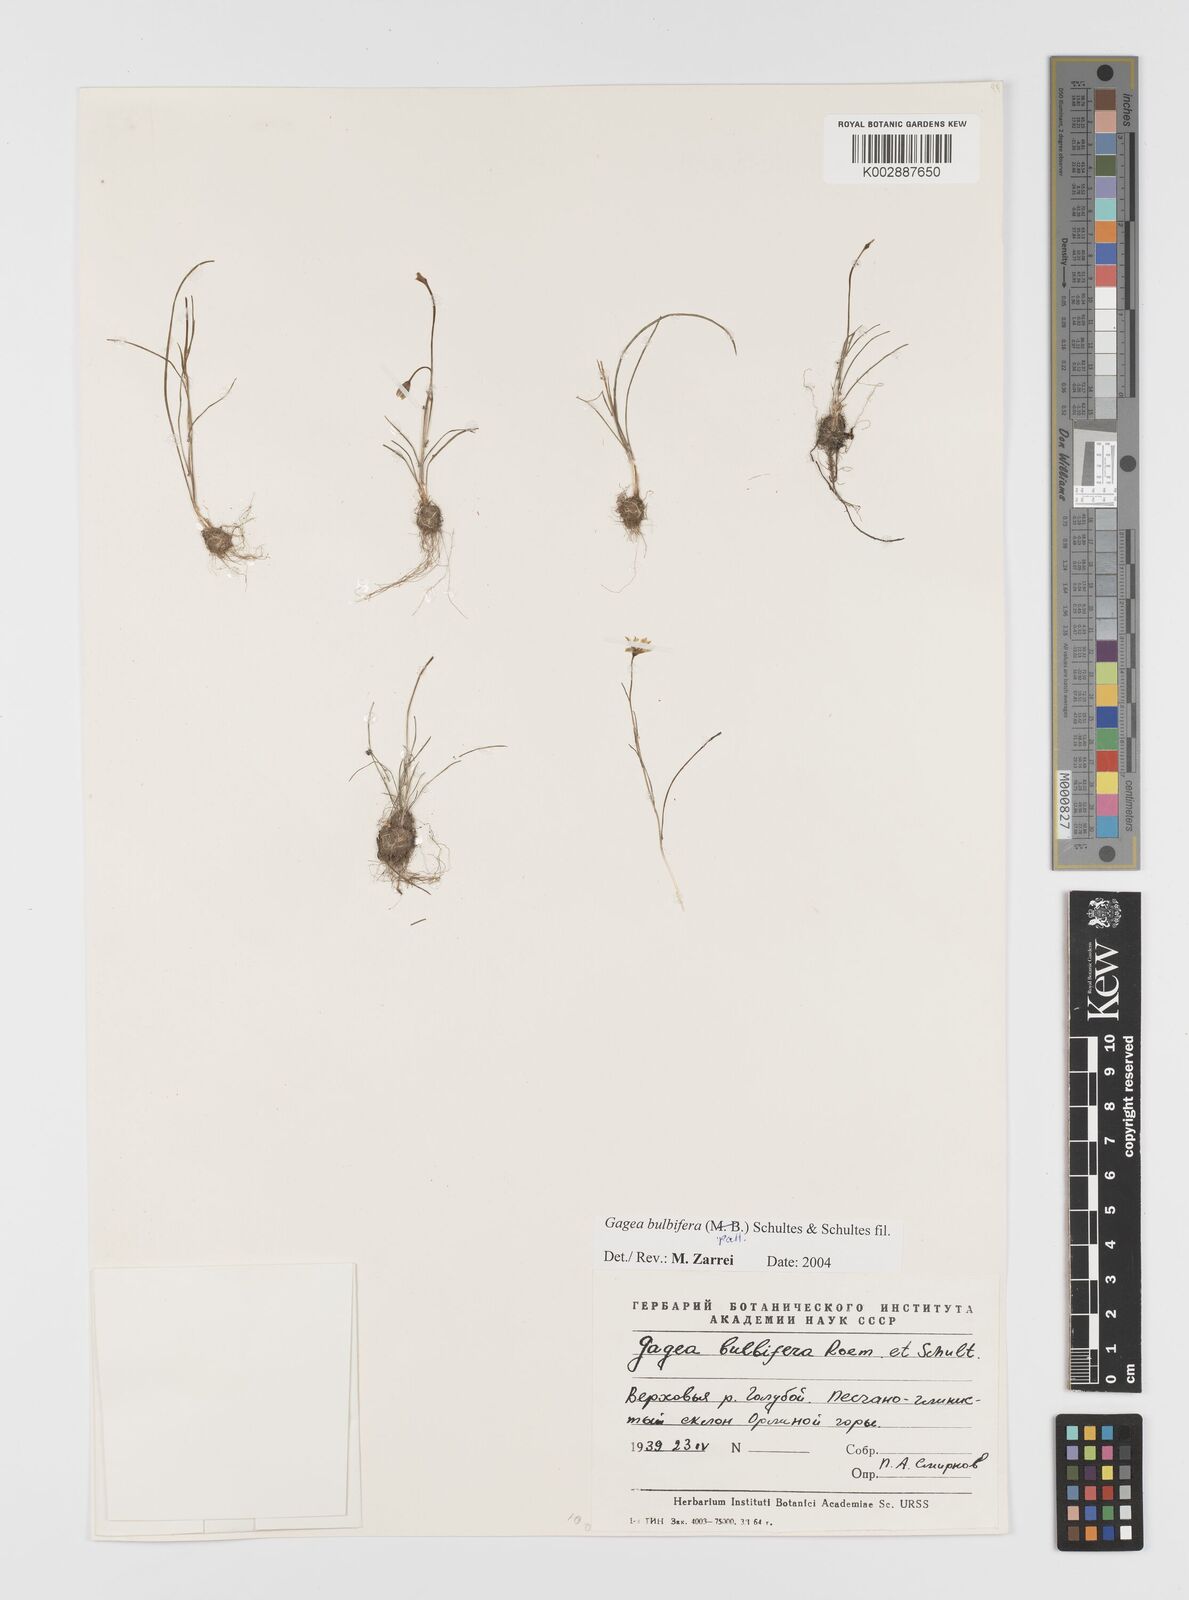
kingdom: Plantae
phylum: Tracheophyta
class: Liliopsida
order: Liliales
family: Liliaceae
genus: Gagea
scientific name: Gagea
